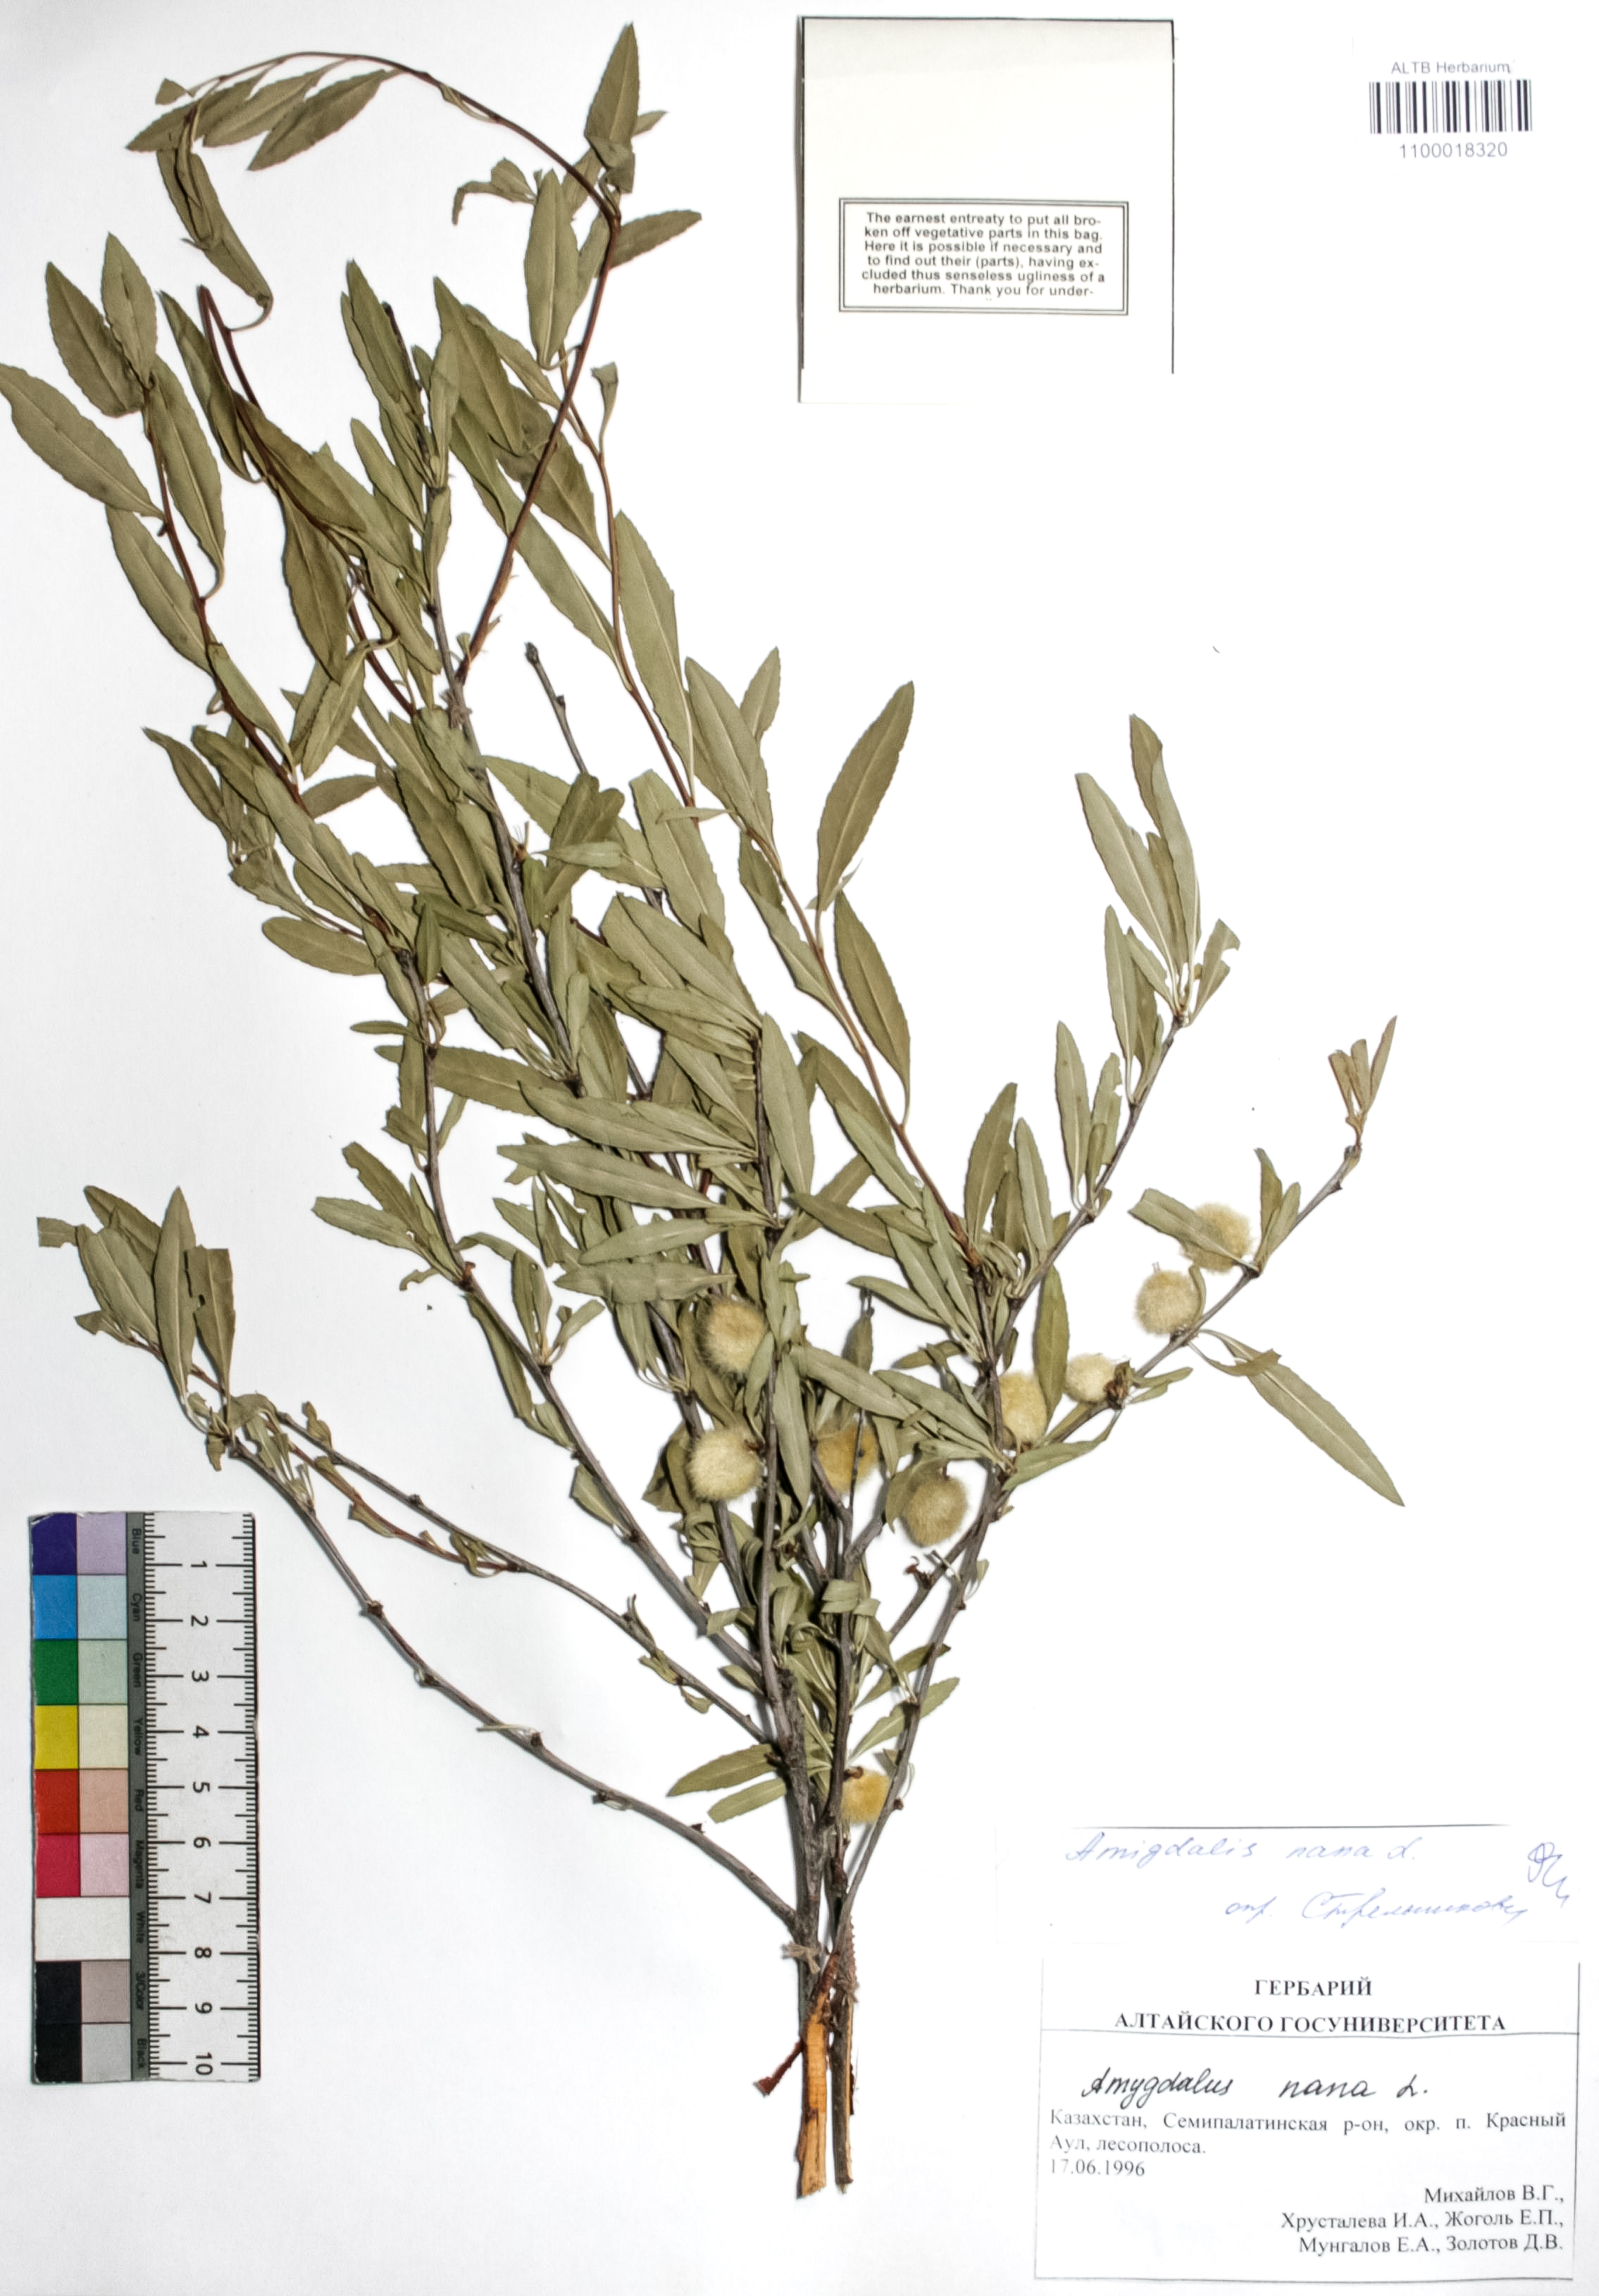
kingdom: Plantae
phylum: Tracheophyta
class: Magnoliopsida
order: Rosales
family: Rosaceae
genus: Prunus
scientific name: Prunus tenella
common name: Dwarf russian almond
